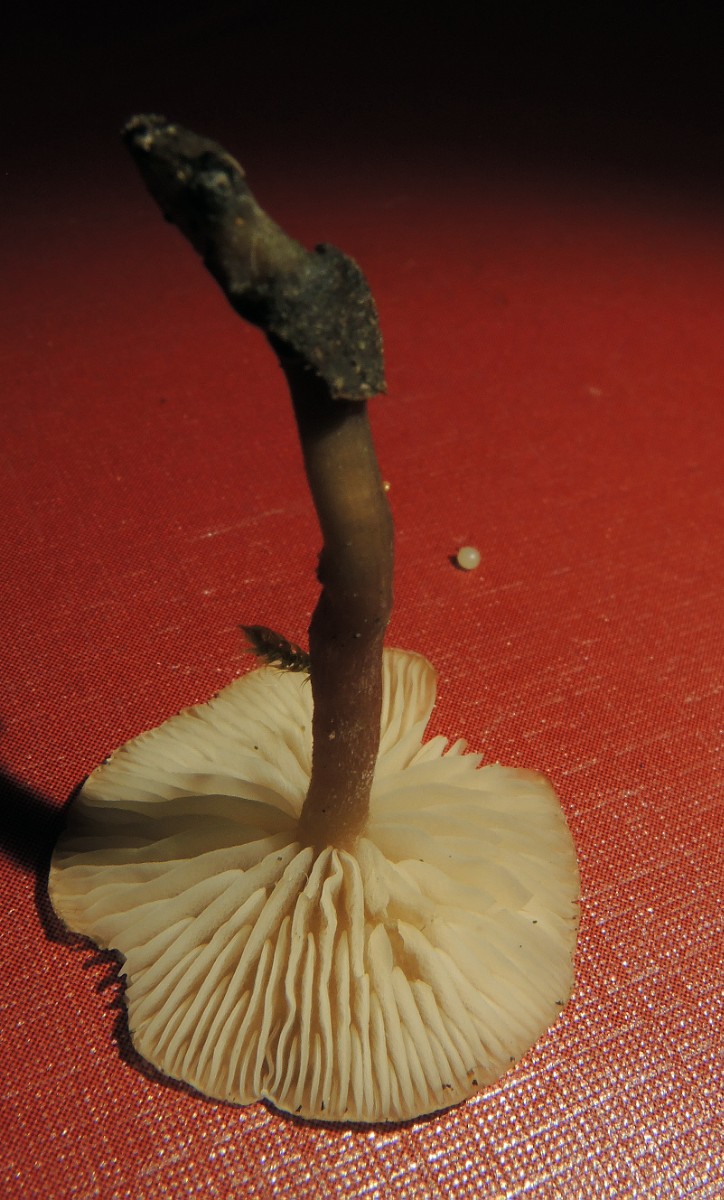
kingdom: Fungi
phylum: Basidiomycota
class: Agaricomycetes
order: Agaricales
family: Lyophyllaceae
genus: Lyophyllum
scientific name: Lyophyllum
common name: gråblad
